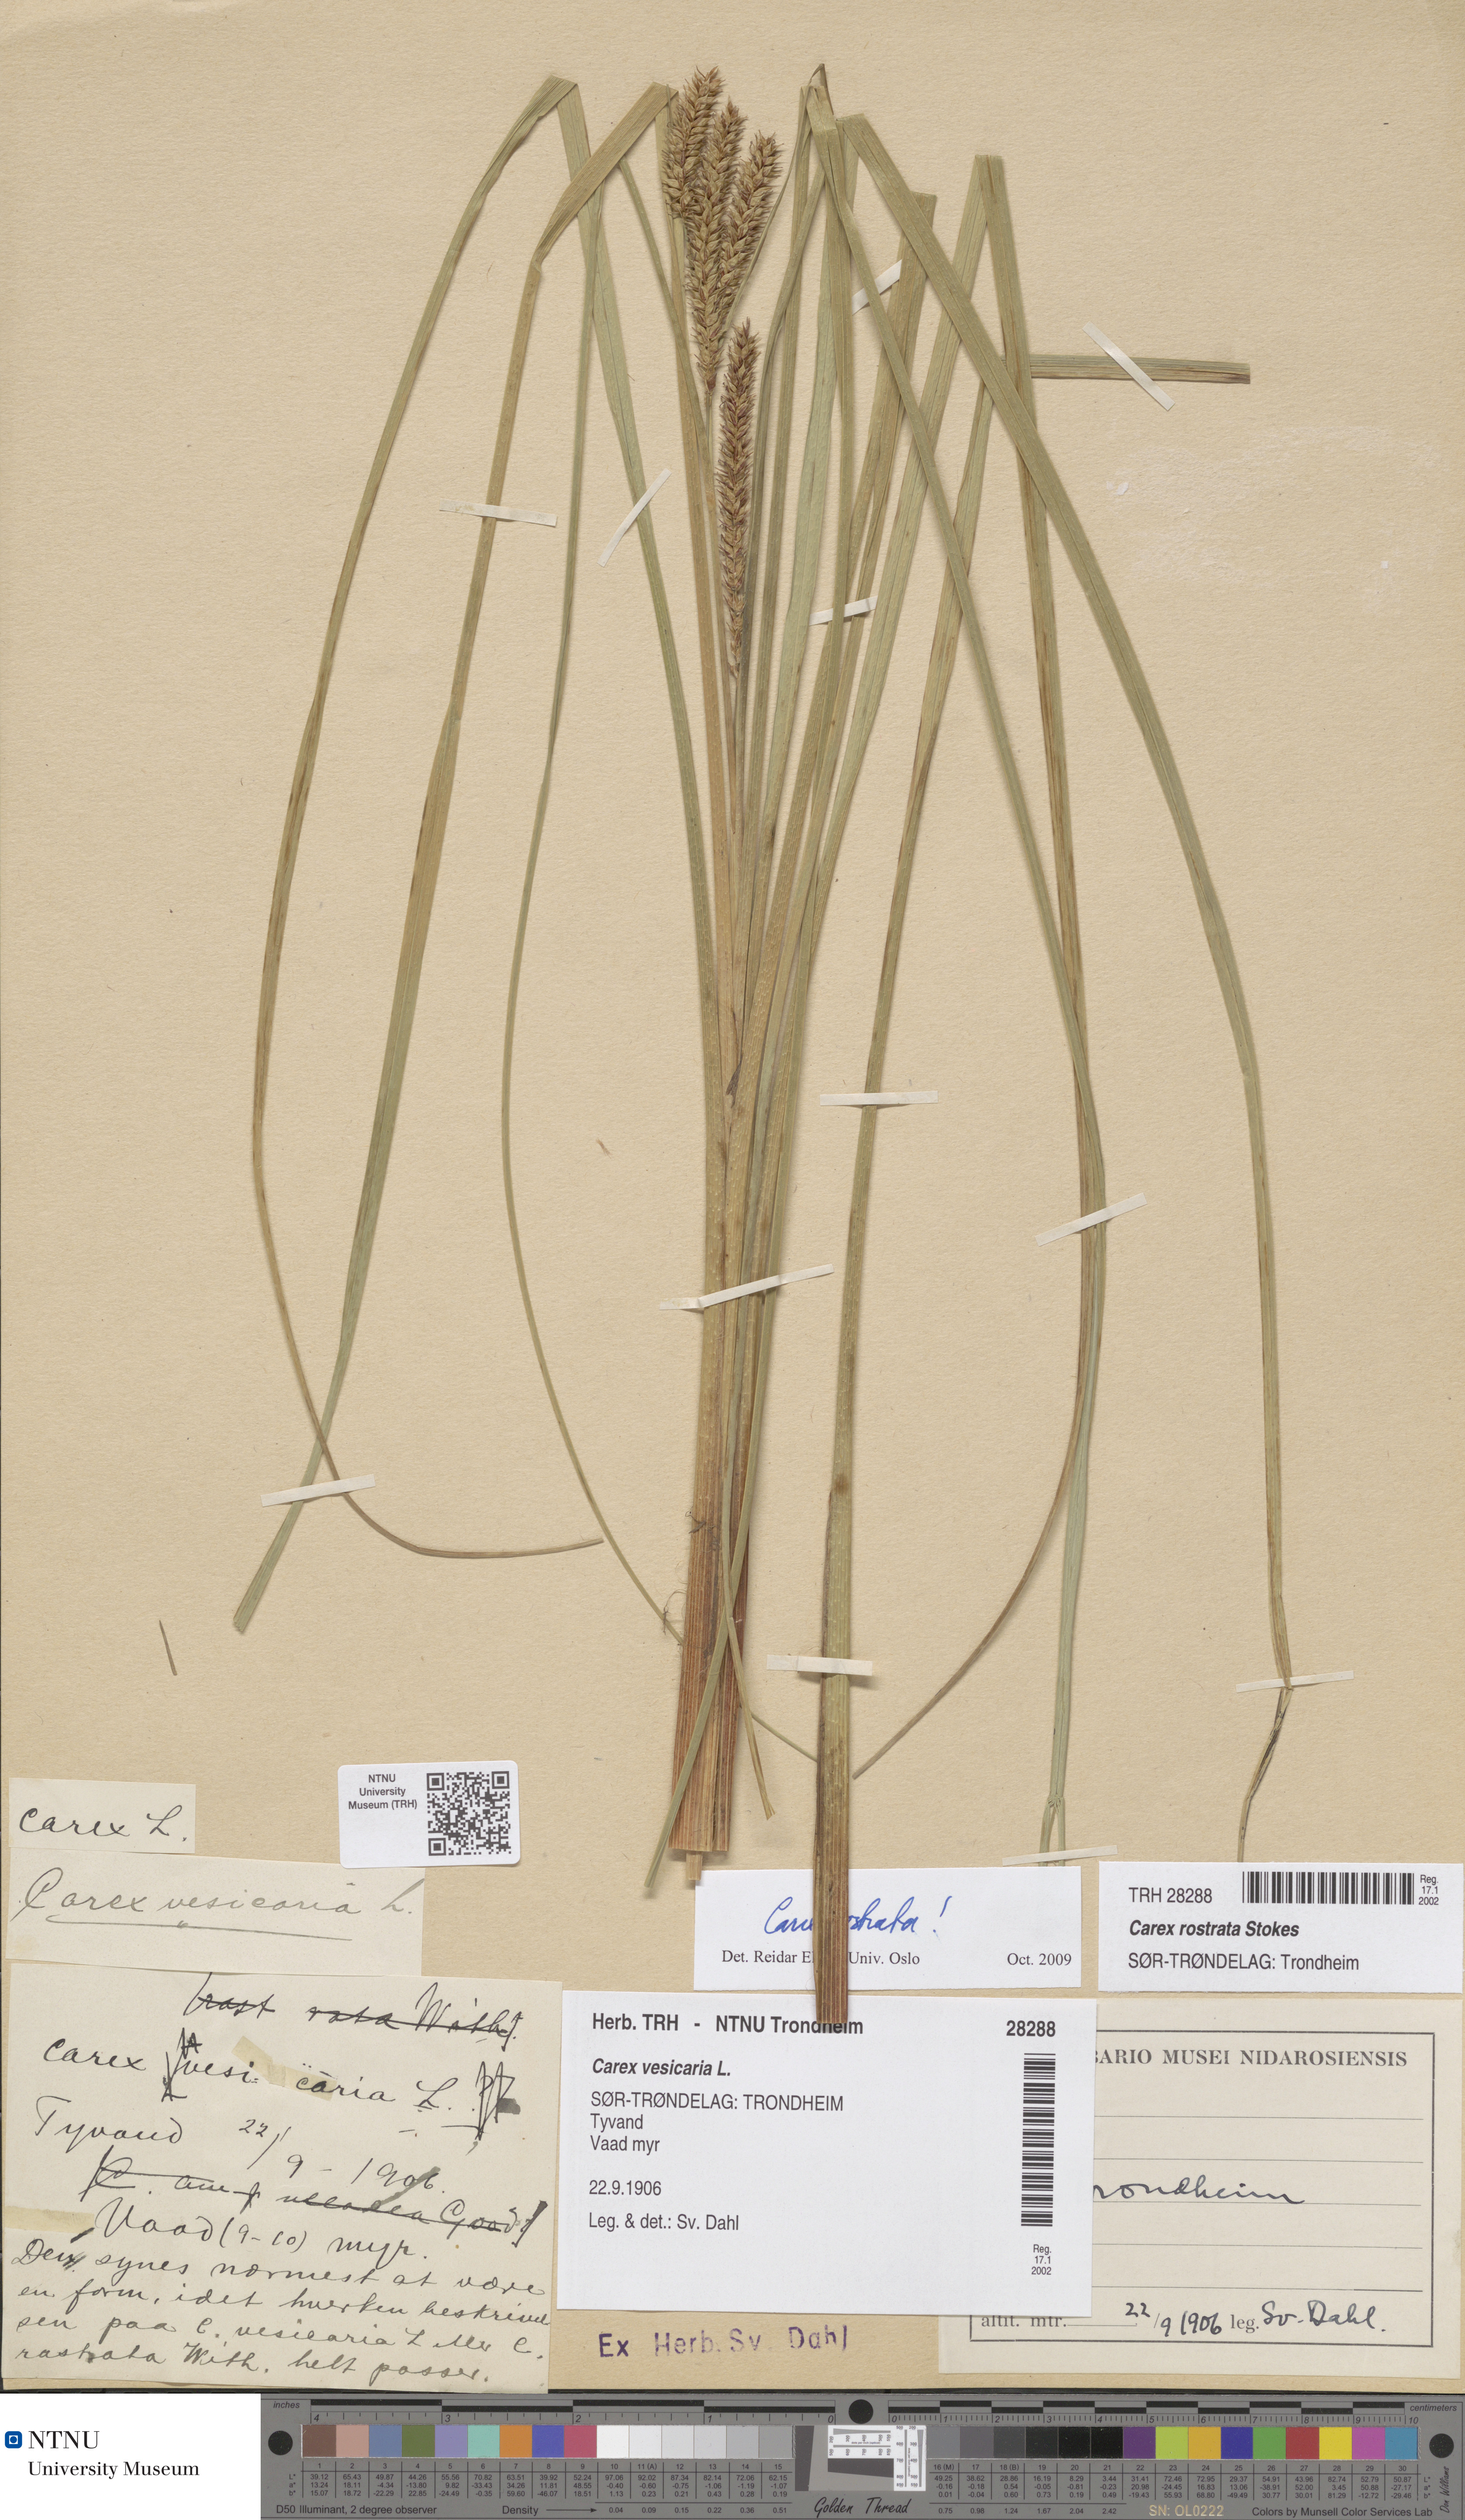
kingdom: Plantae
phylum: Tracheophyta
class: Liliopsida
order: Poales
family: Cyperaceae
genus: Carex
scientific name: Carex rostrata
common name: Bottle sedge
